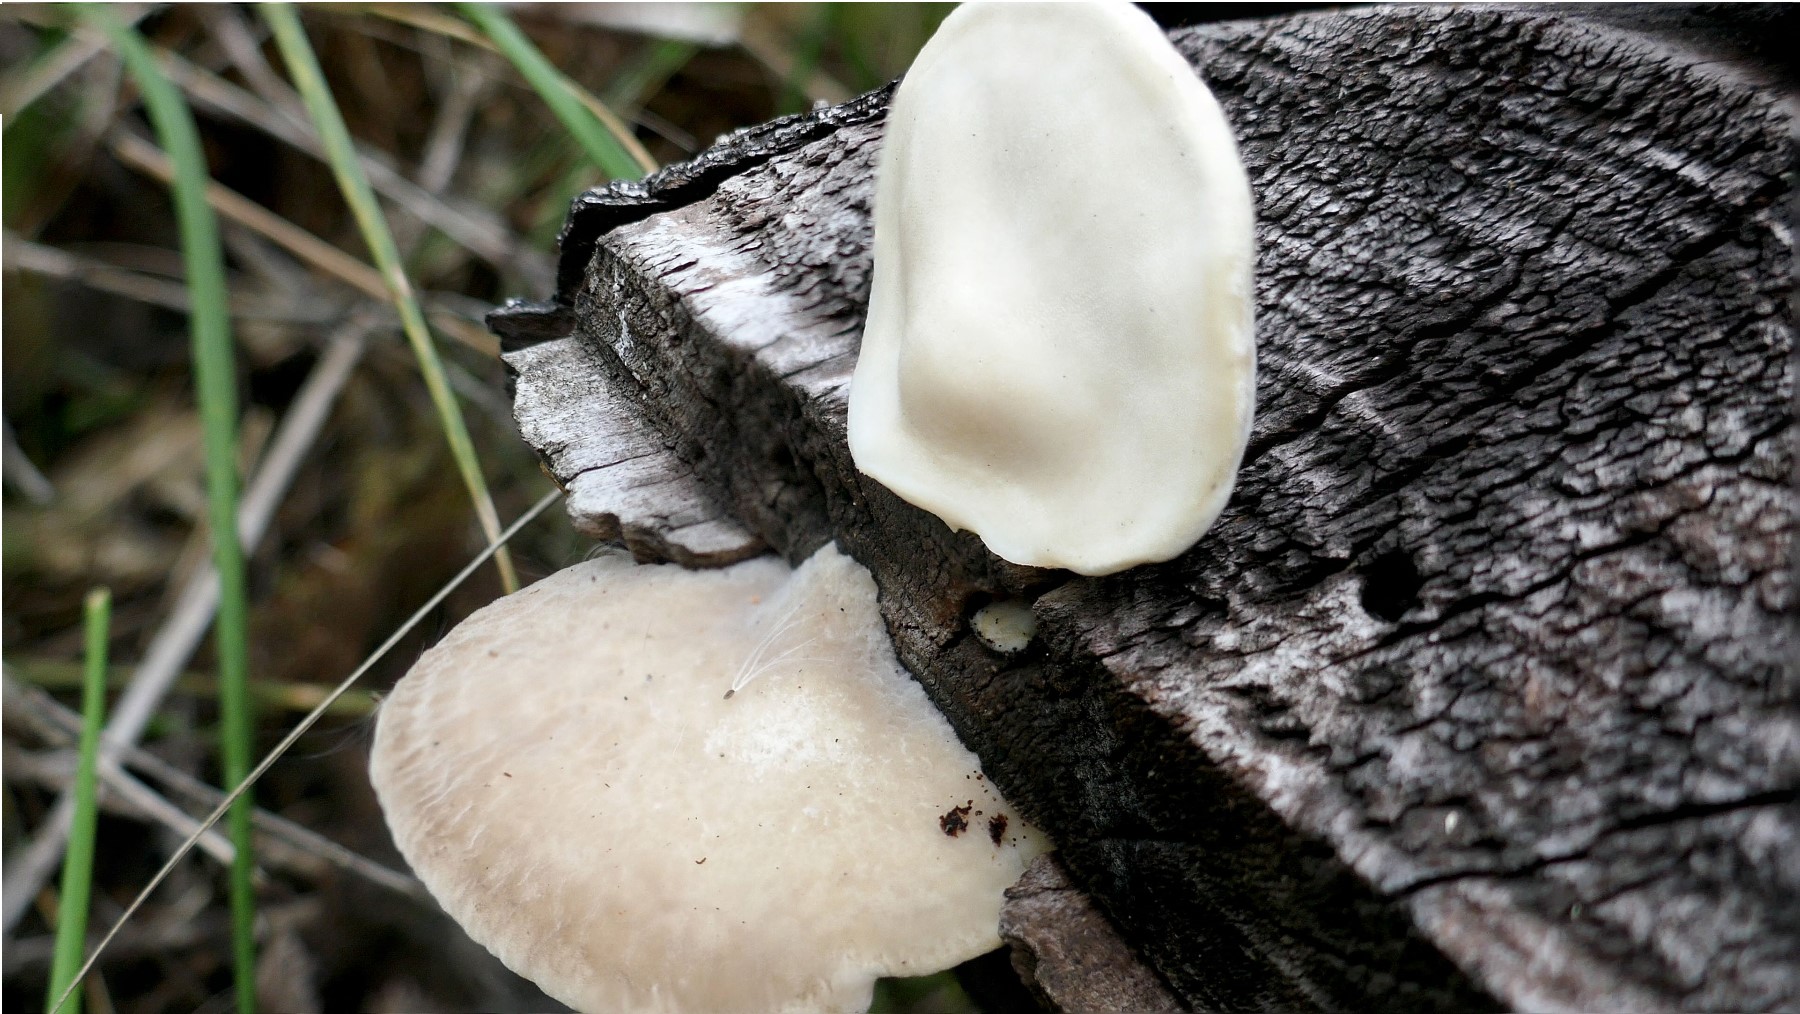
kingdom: Fungi
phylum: Basidiomycota
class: Agaricomycetes
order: Polyporales
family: Incrustoporiaceae
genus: Tyromyces
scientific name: Tyromyces lacteus
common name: mælkehvid kødporesvamp
